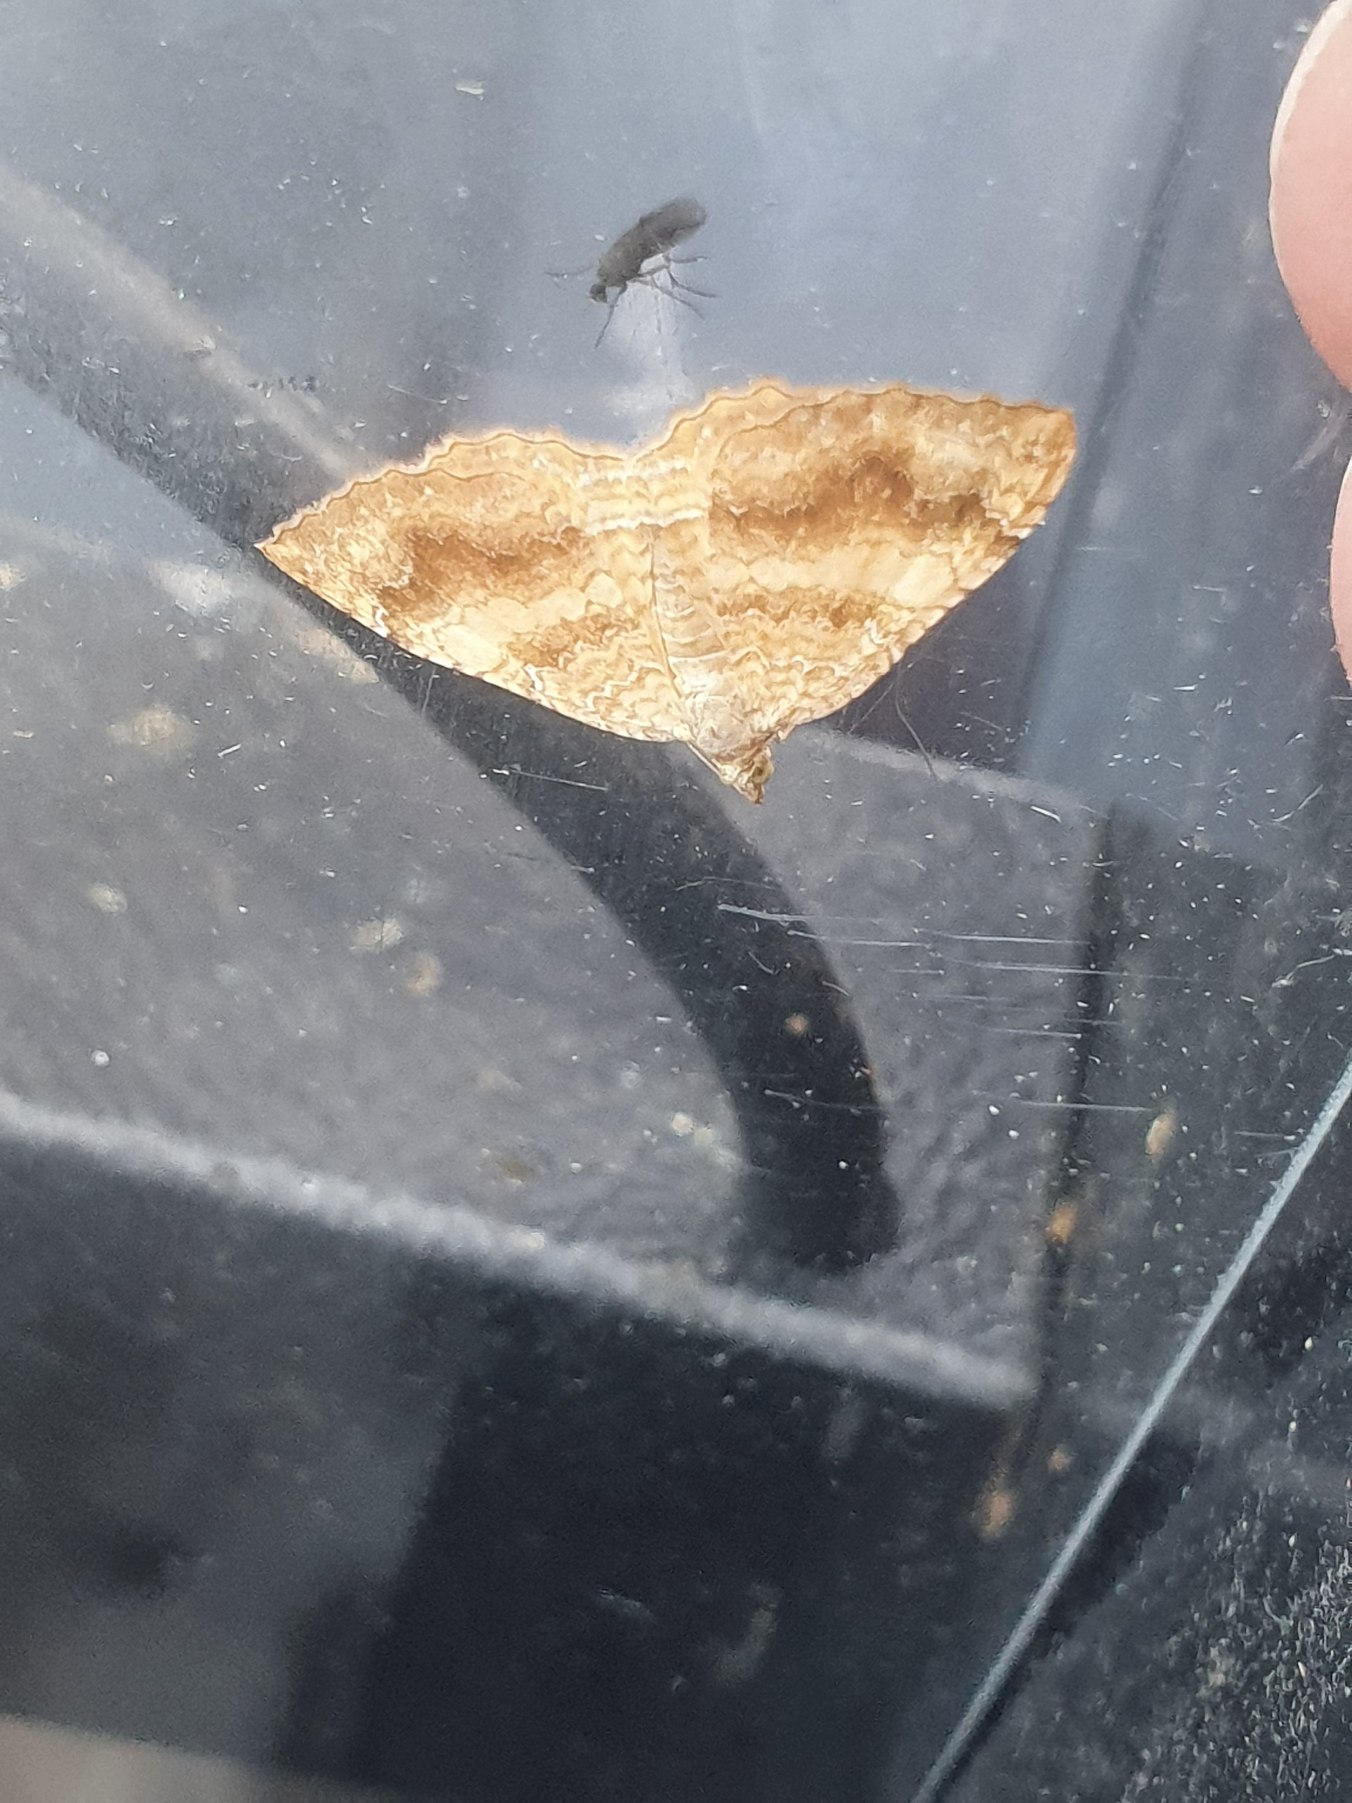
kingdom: Animalia
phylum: Arthropoda
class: Insecta
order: Lepidoptera
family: Geometridae
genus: Camptogramma
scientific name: Camptogramma bilineata
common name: Okkergul bladmåler
